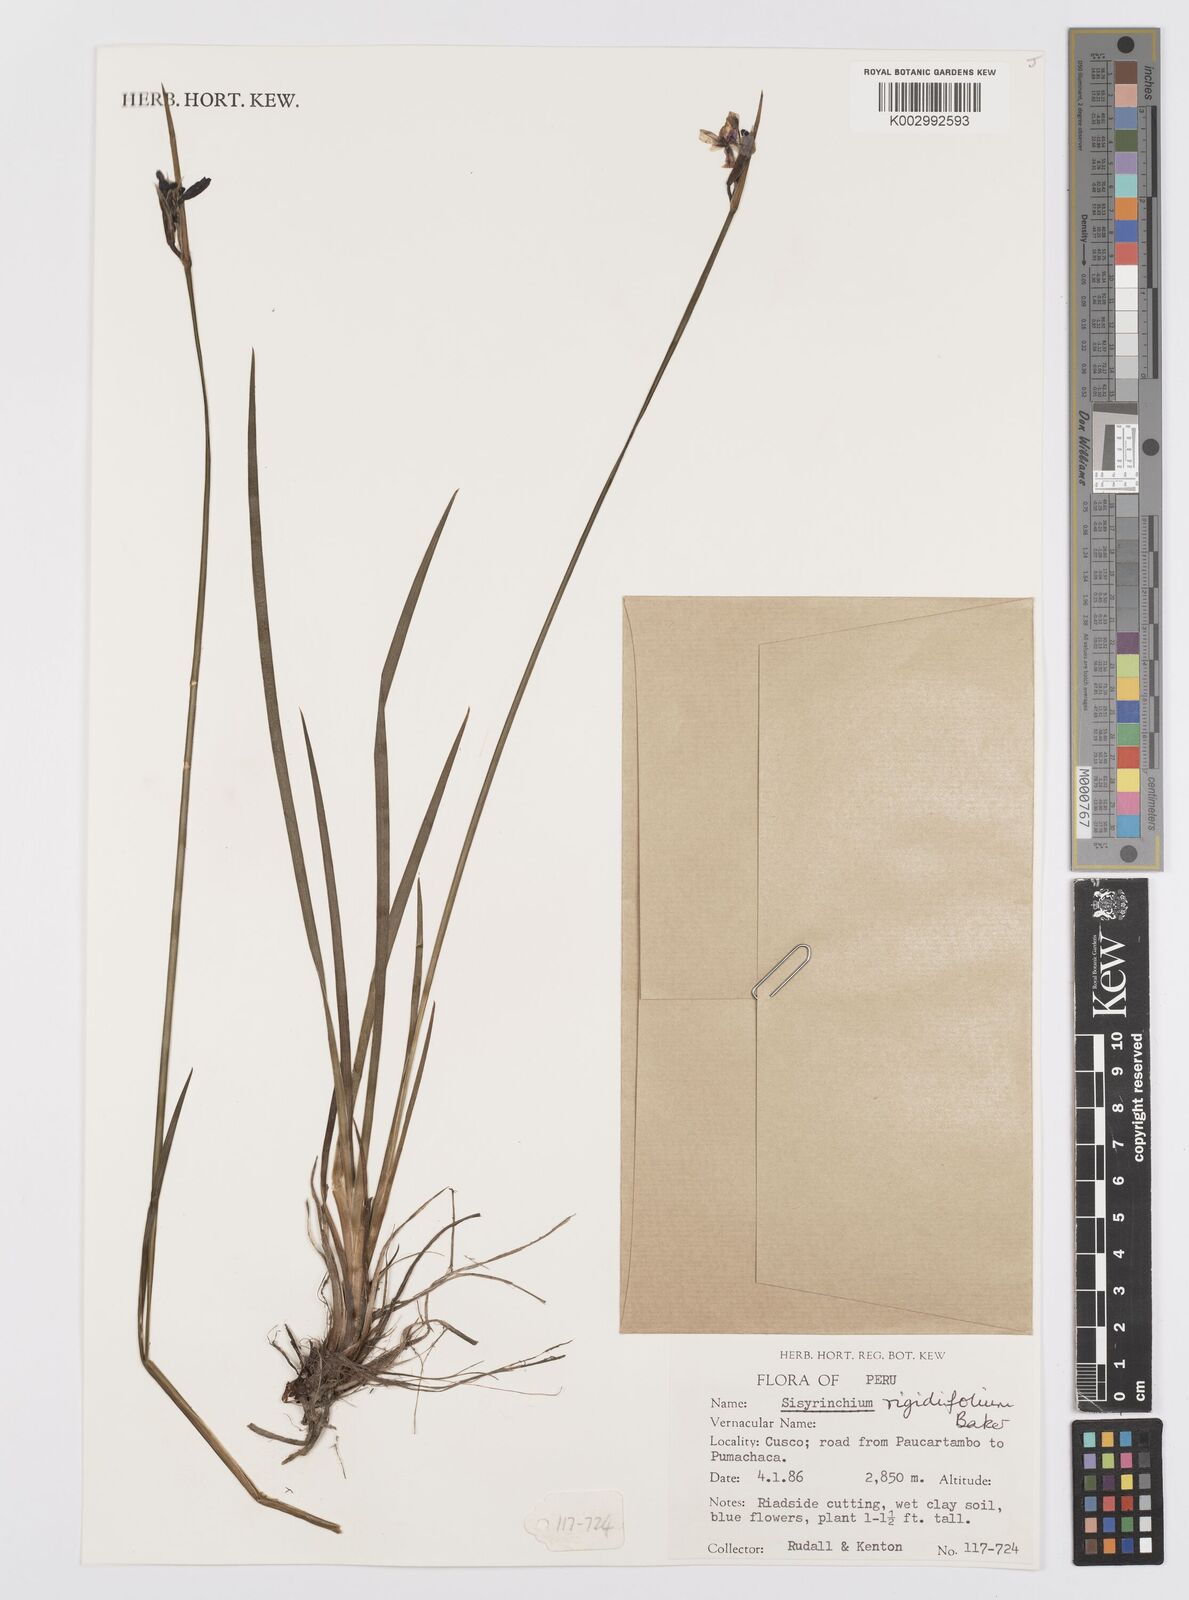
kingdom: Plantae
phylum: Tracheophyta
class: Liliopsida
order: Asparagales
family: Iridaceae
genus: Sisyrinchium
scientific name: Sisyrinchium rigidifolium
